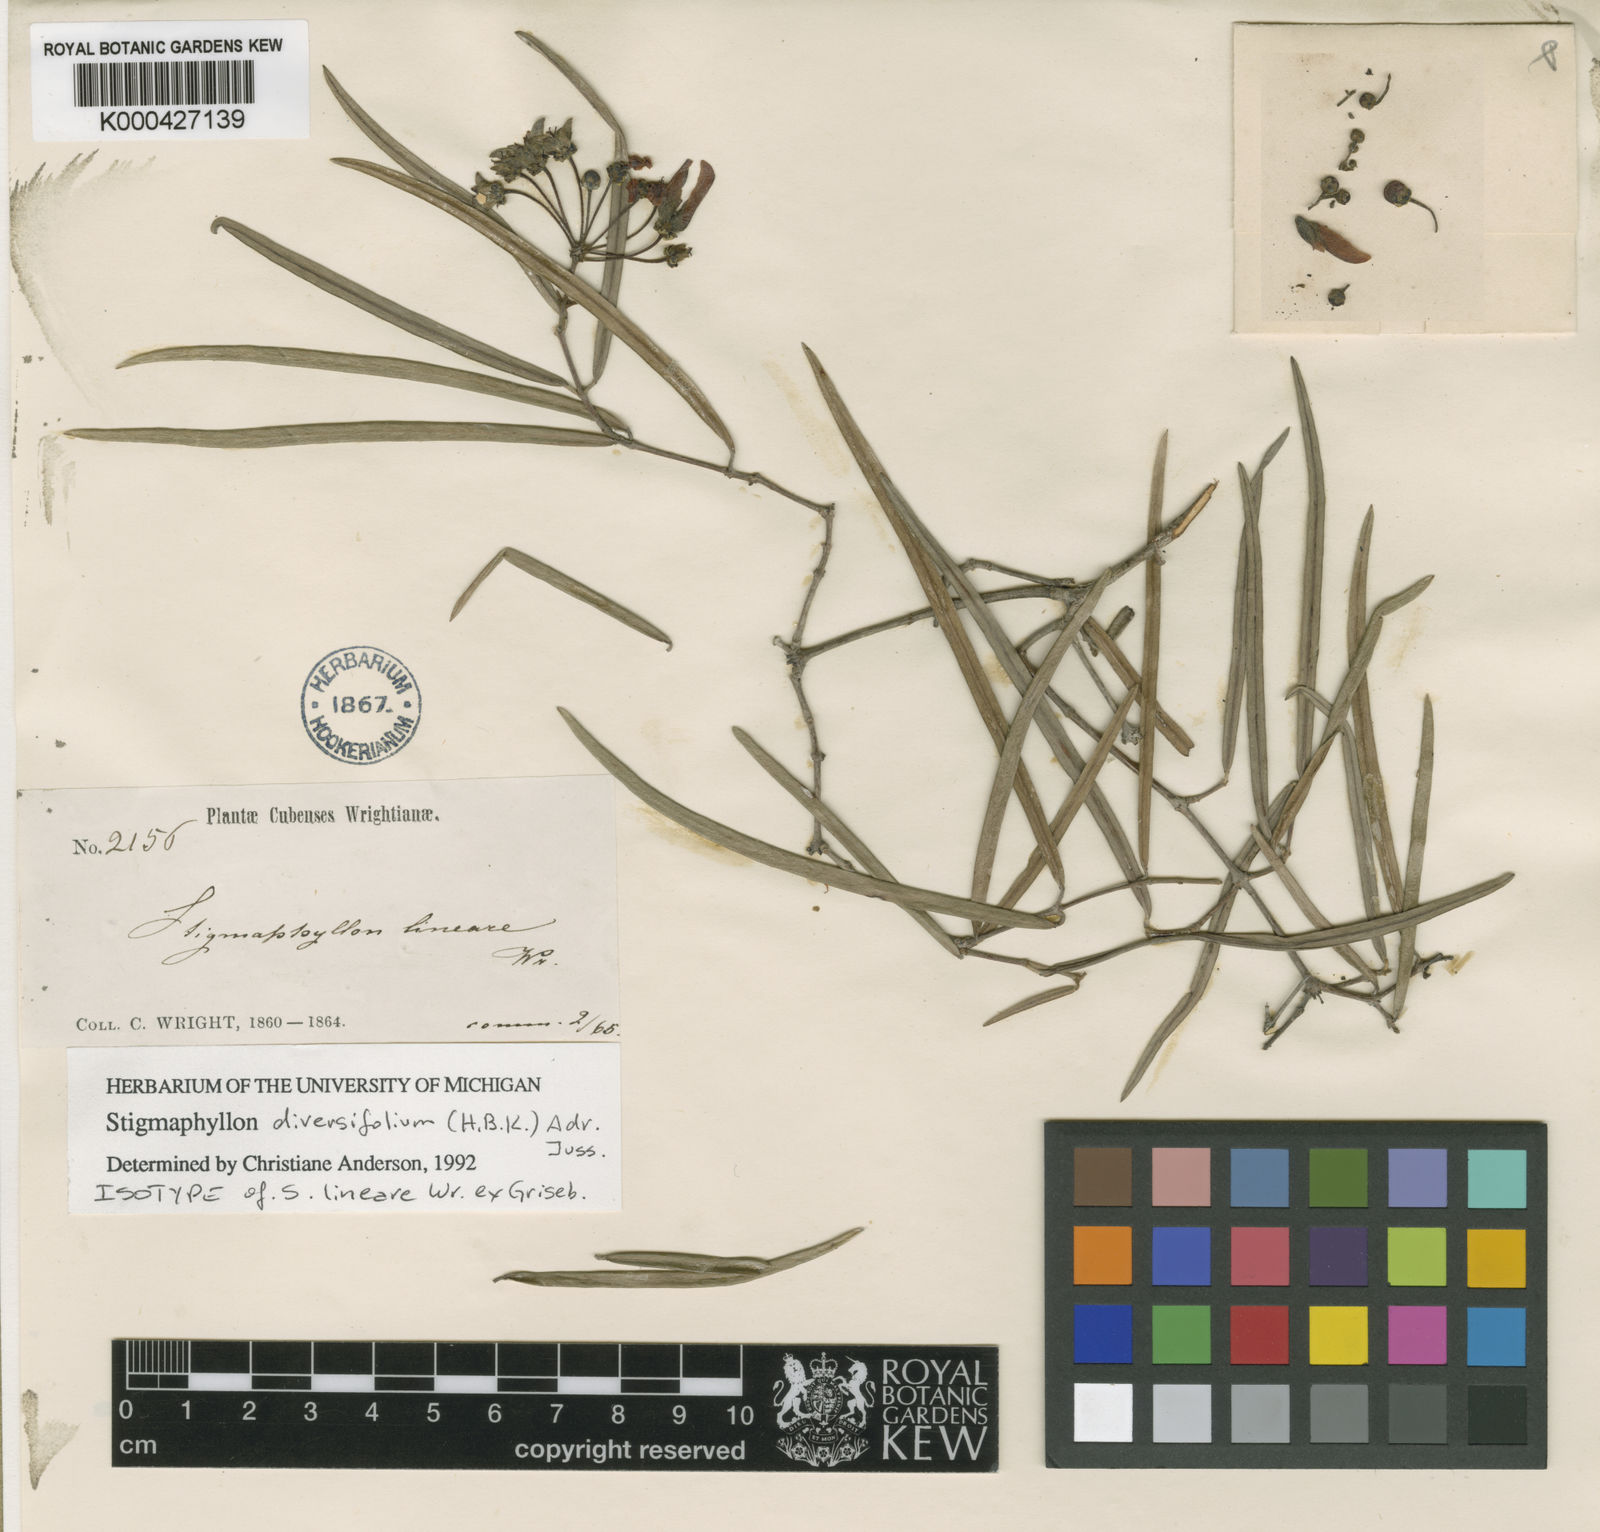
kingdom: Plantae
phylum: Tracheophyta
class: Magnoliopsida
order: Malpighiales
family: Malpighiaceae
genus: Stigmaphyllon
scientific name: Stigmaphyllon diversifolium
